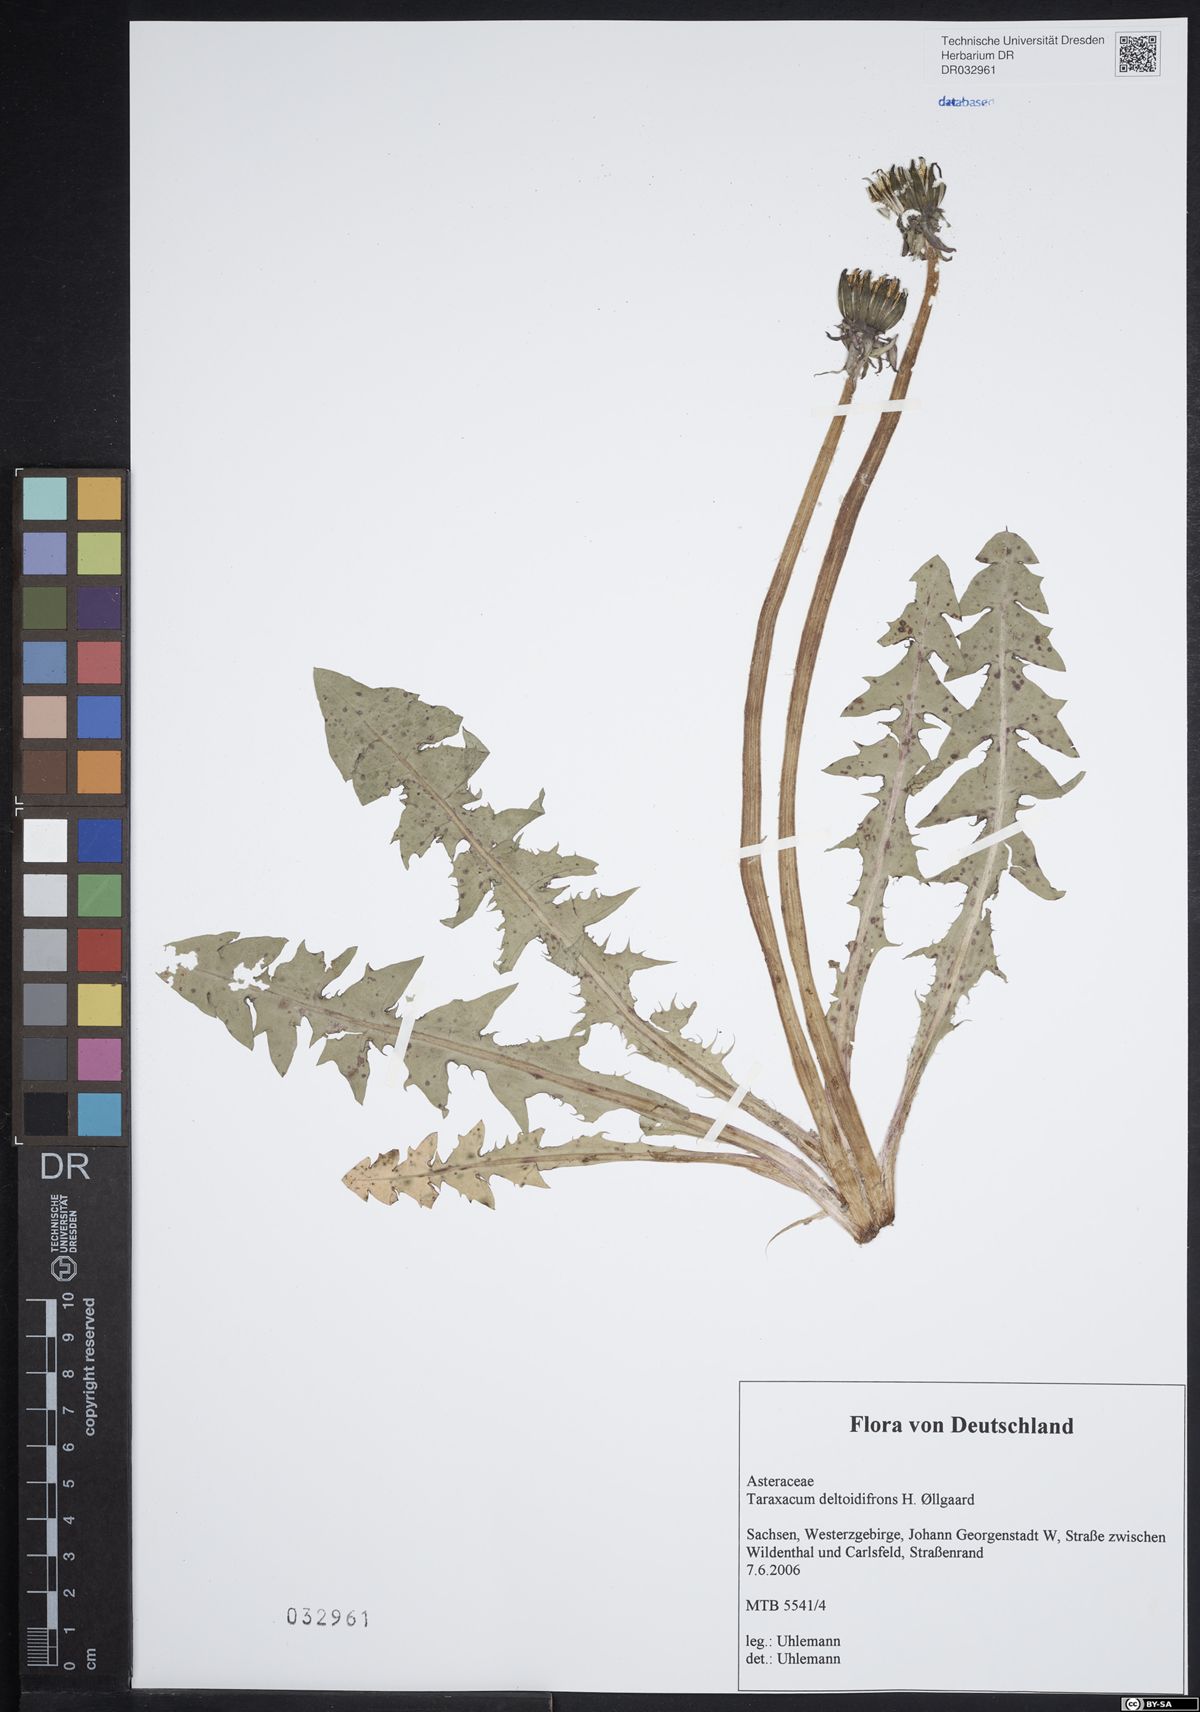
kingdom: Plantae
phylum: Tracheophyta
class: Magnoliopsida
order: Asterales
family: Asteraceae
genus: Taraxacum
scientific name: Taraxacum deltoidifrons
